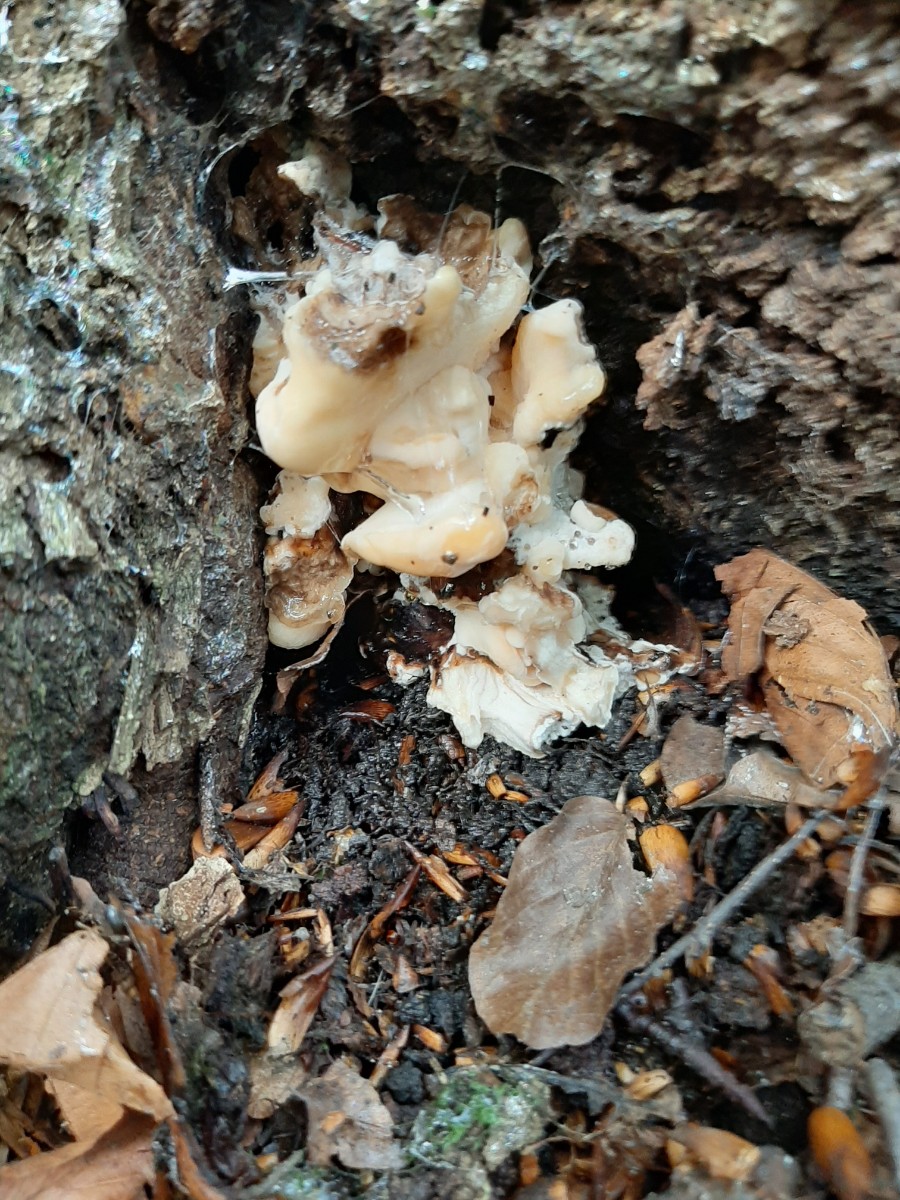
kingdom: Fungi
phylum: Basidiomycota
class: Agaricomycetes
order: Polyporales
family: Meripilaceae
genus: Meripilus
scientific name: Meripilus giganteus
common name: kæmpeporesvamp
